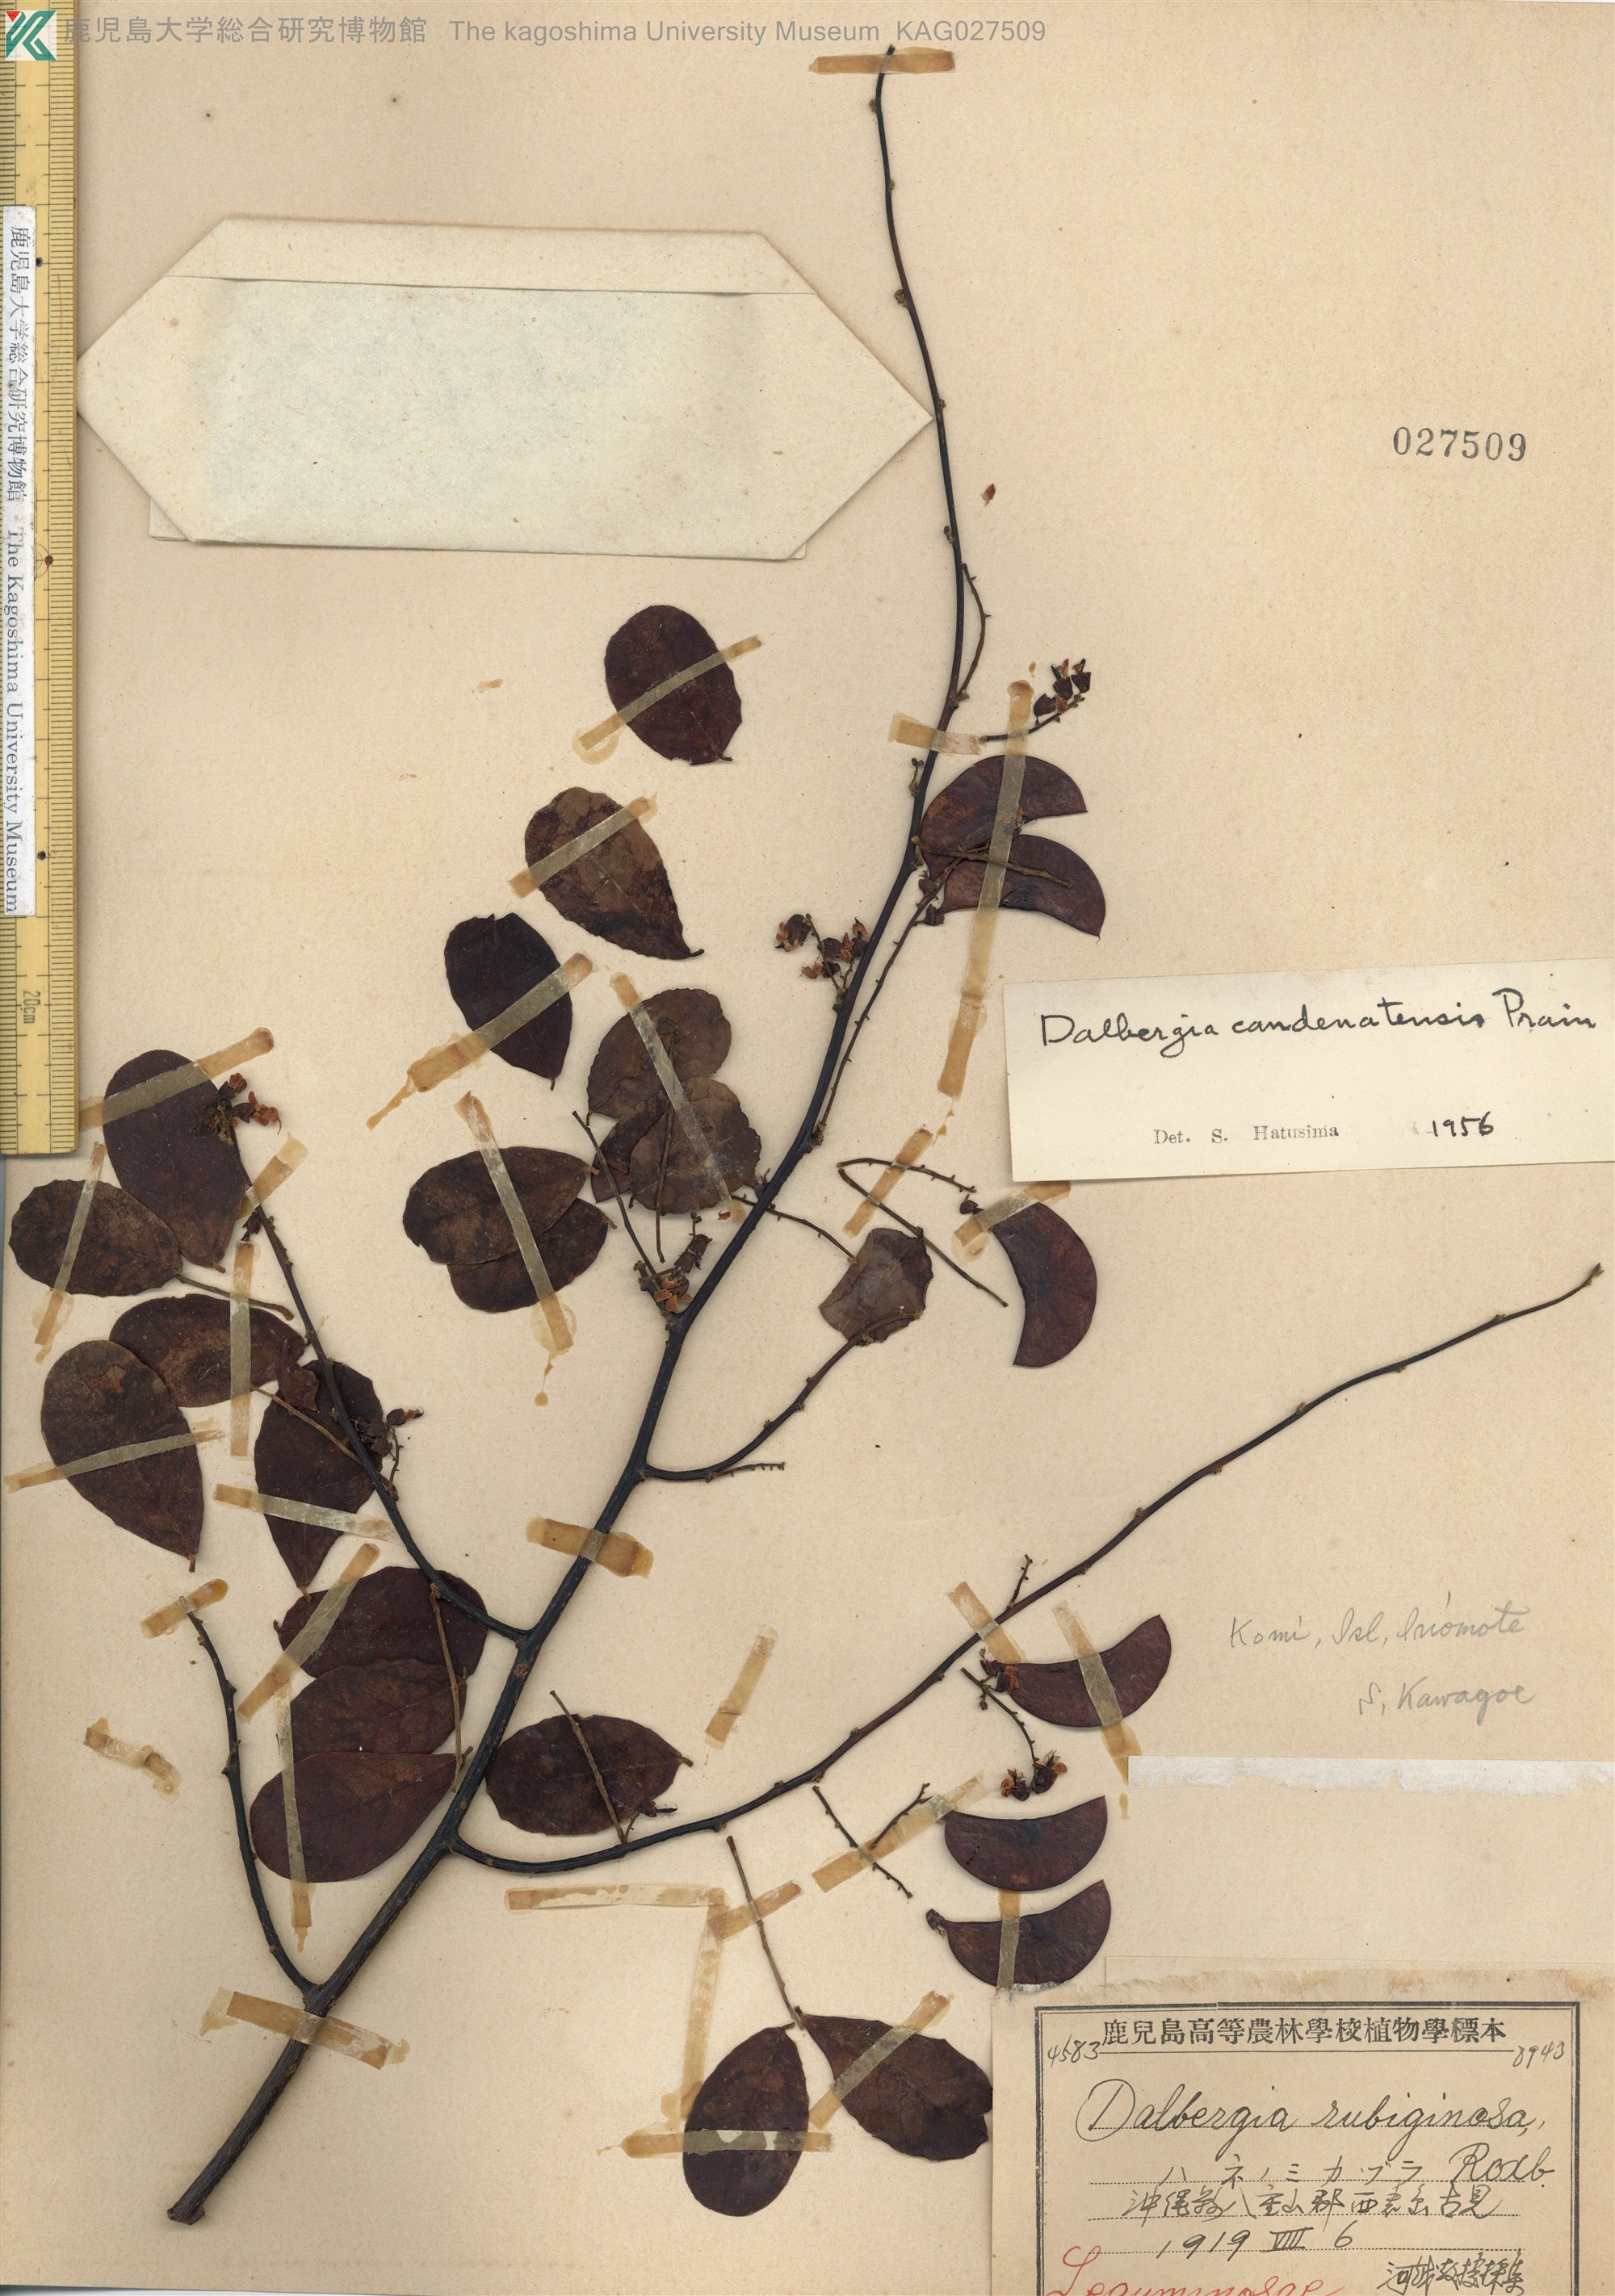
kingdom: Plantae
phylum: Tracheophyta
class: Magnoliopsida
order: Fabales
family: Fabaceae
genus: Dalbergia
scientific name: Dalbergia candenatensis
